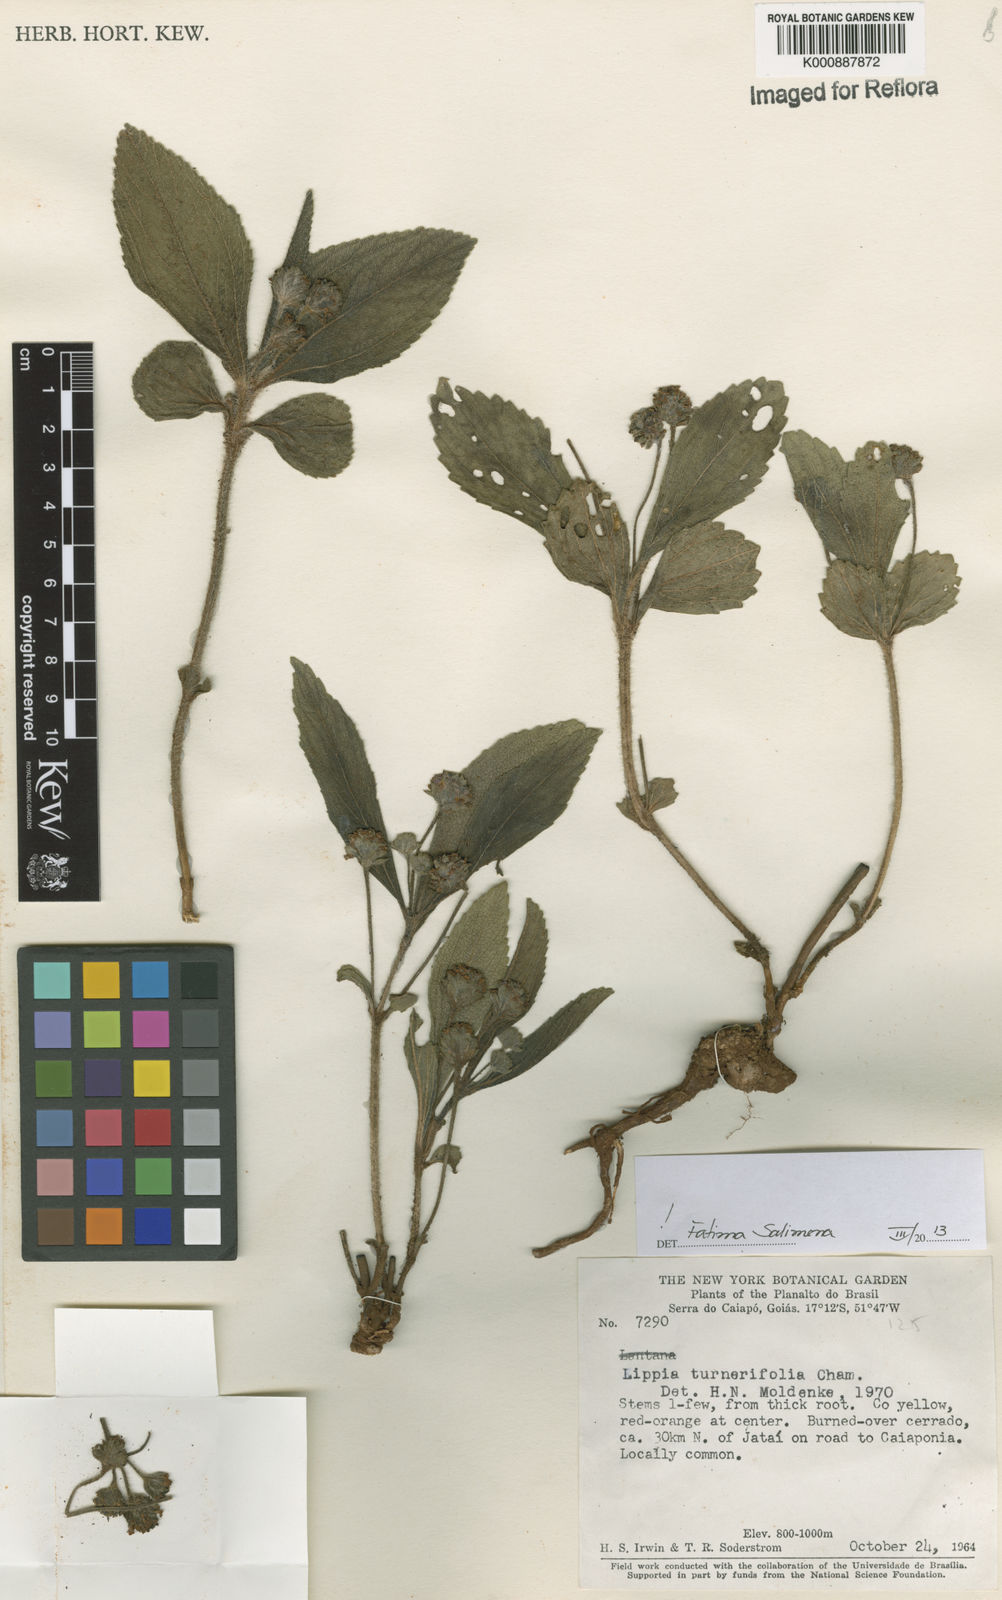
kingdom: Plantae
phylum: Tracheophyta
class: Magnoliopsida
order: Lamiales
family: Verbenaceae
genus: Lippia
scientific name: Lippia turnerifolia
